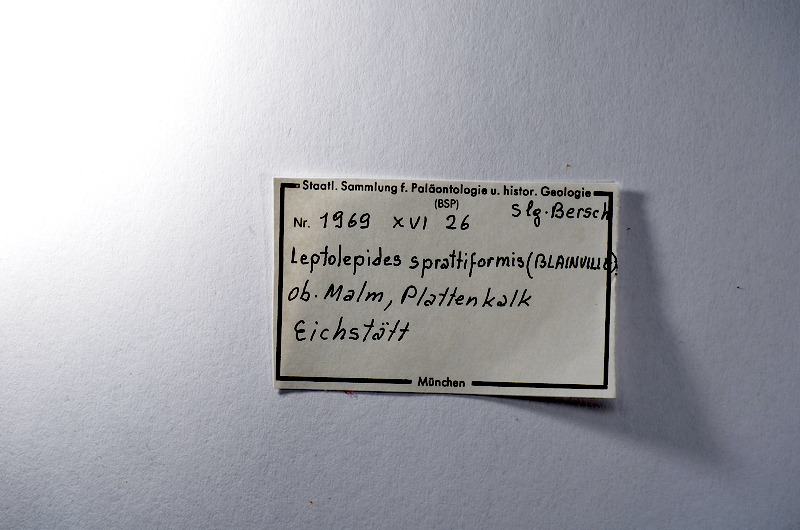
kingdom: Animalia
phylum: Chordata
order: Salmoniformes
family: Orthogonikleithridae
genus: Leptolepides
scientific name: Leptolepides sprattiformis
